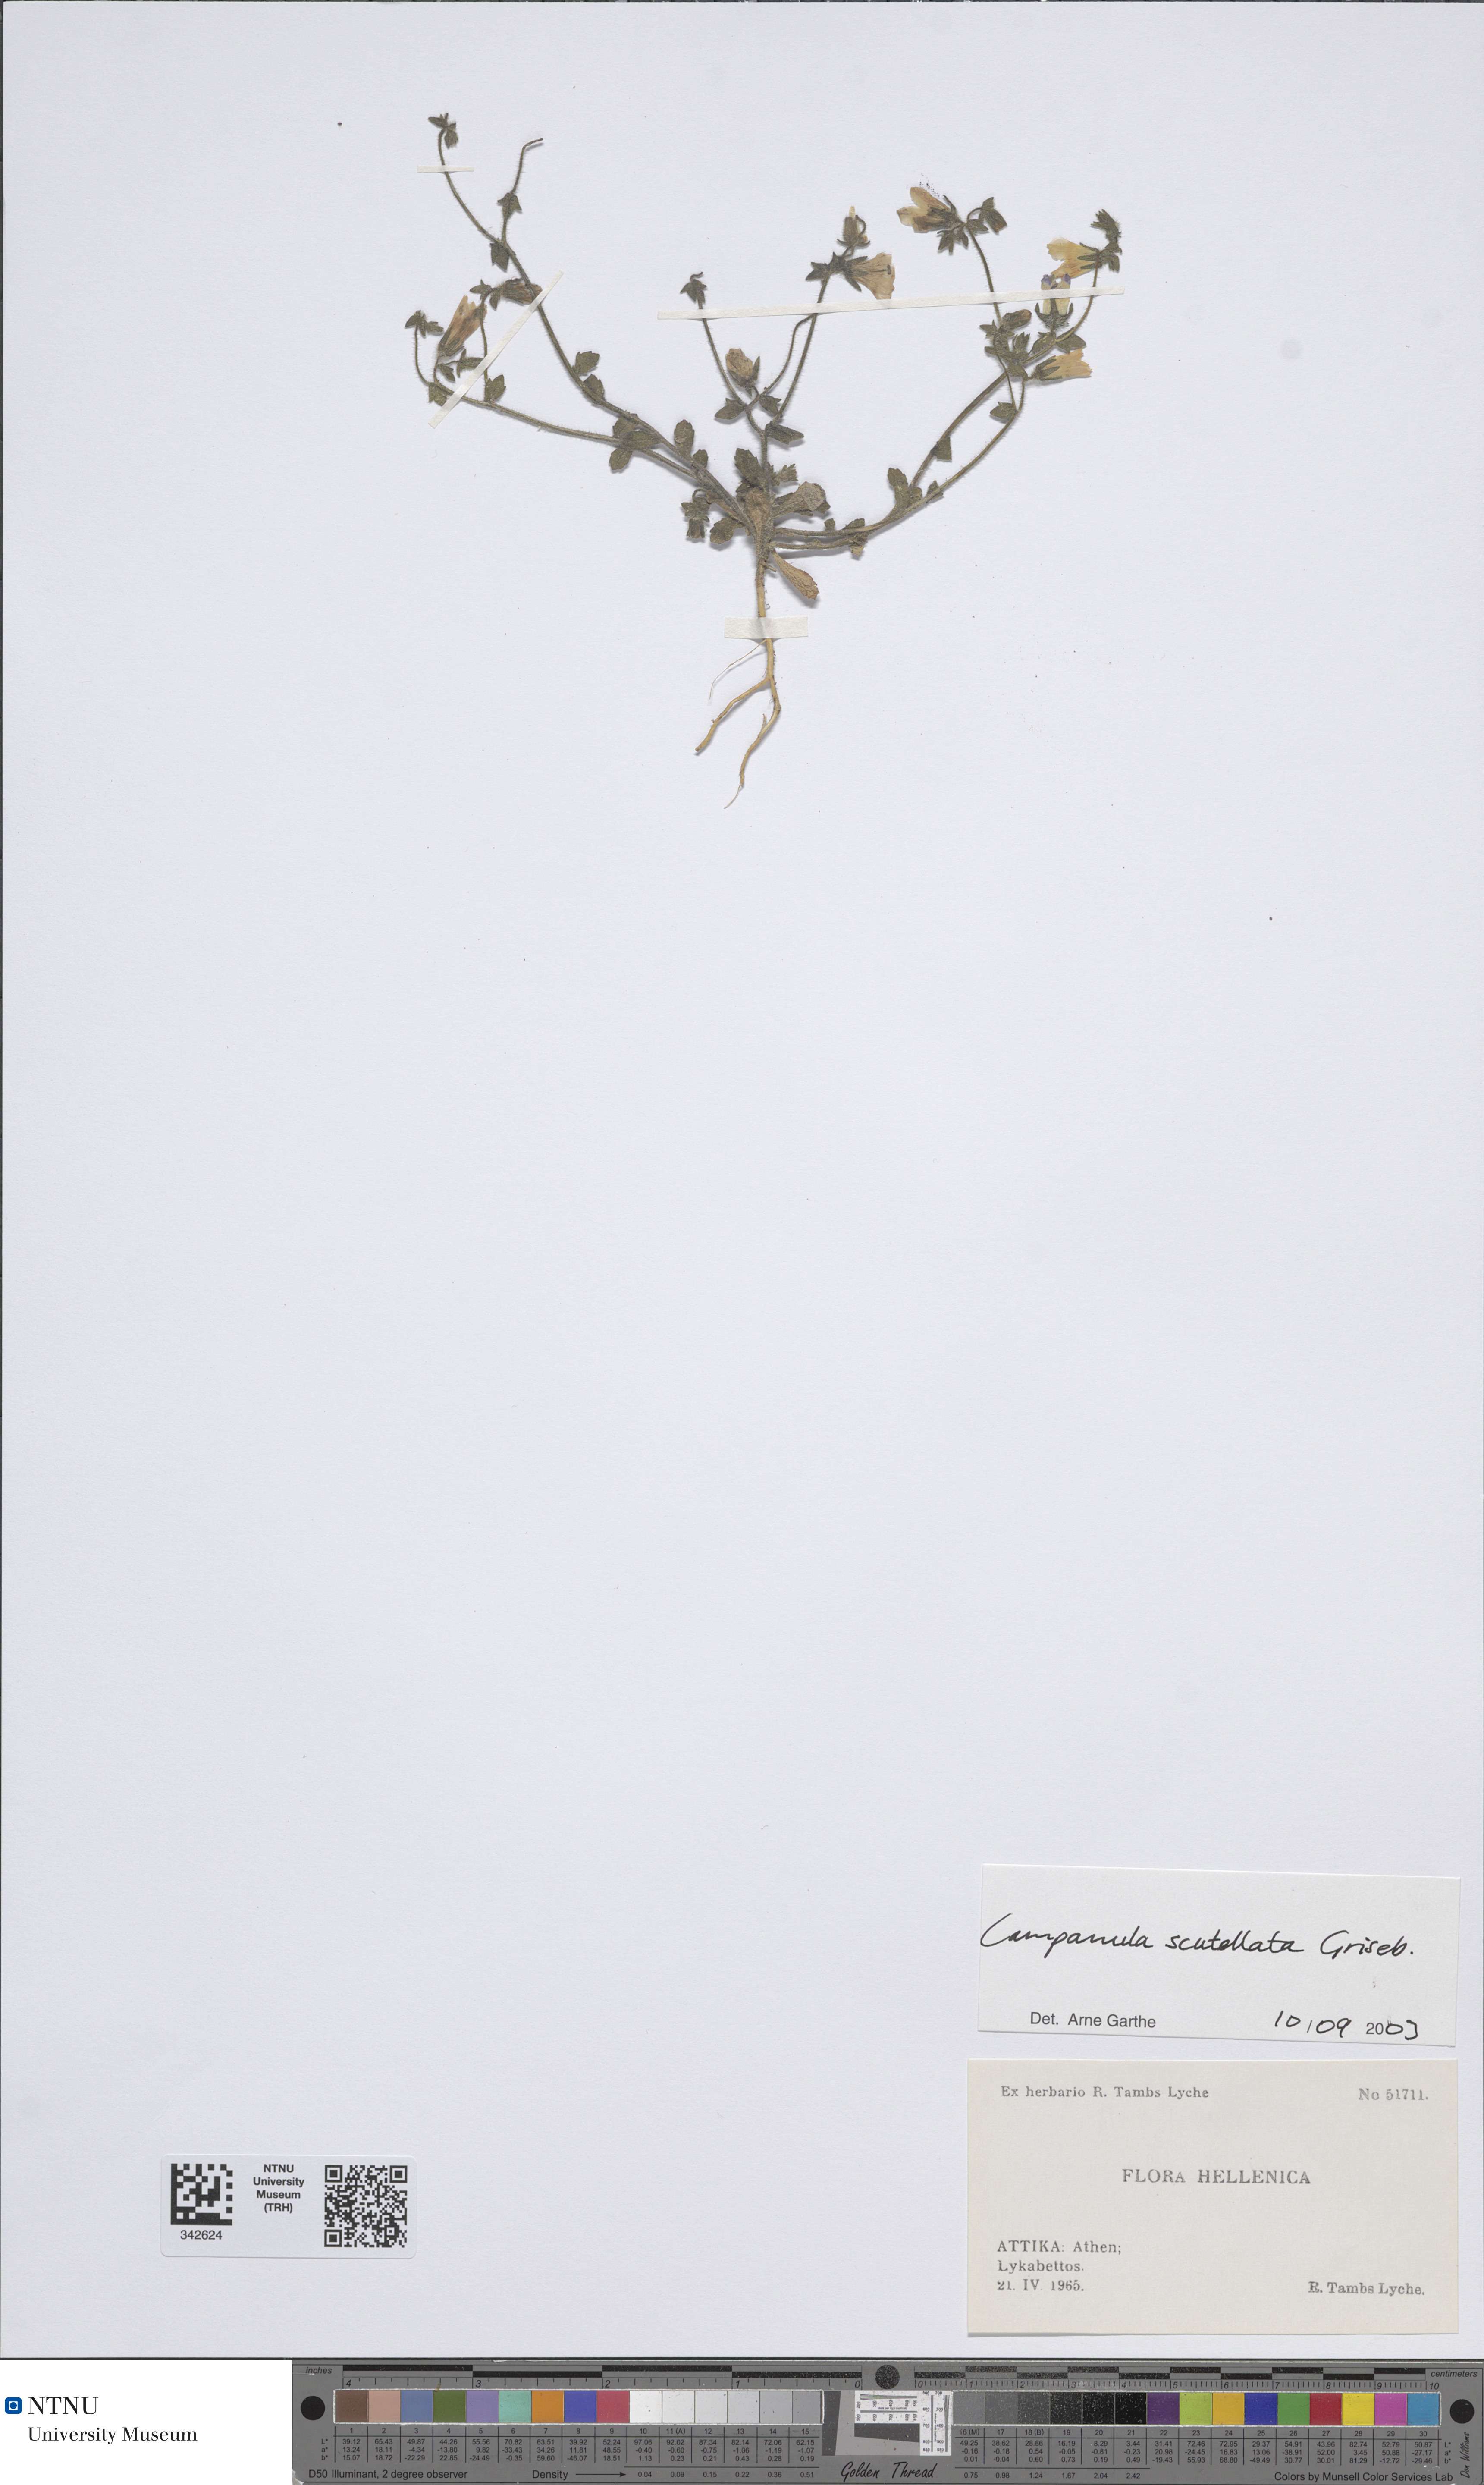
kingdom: Plantae
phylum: Tracheophyta
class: Magnoliopsida
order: Asterales
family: Campanulaceae
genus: Campanula
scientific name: Campanula scutellata
